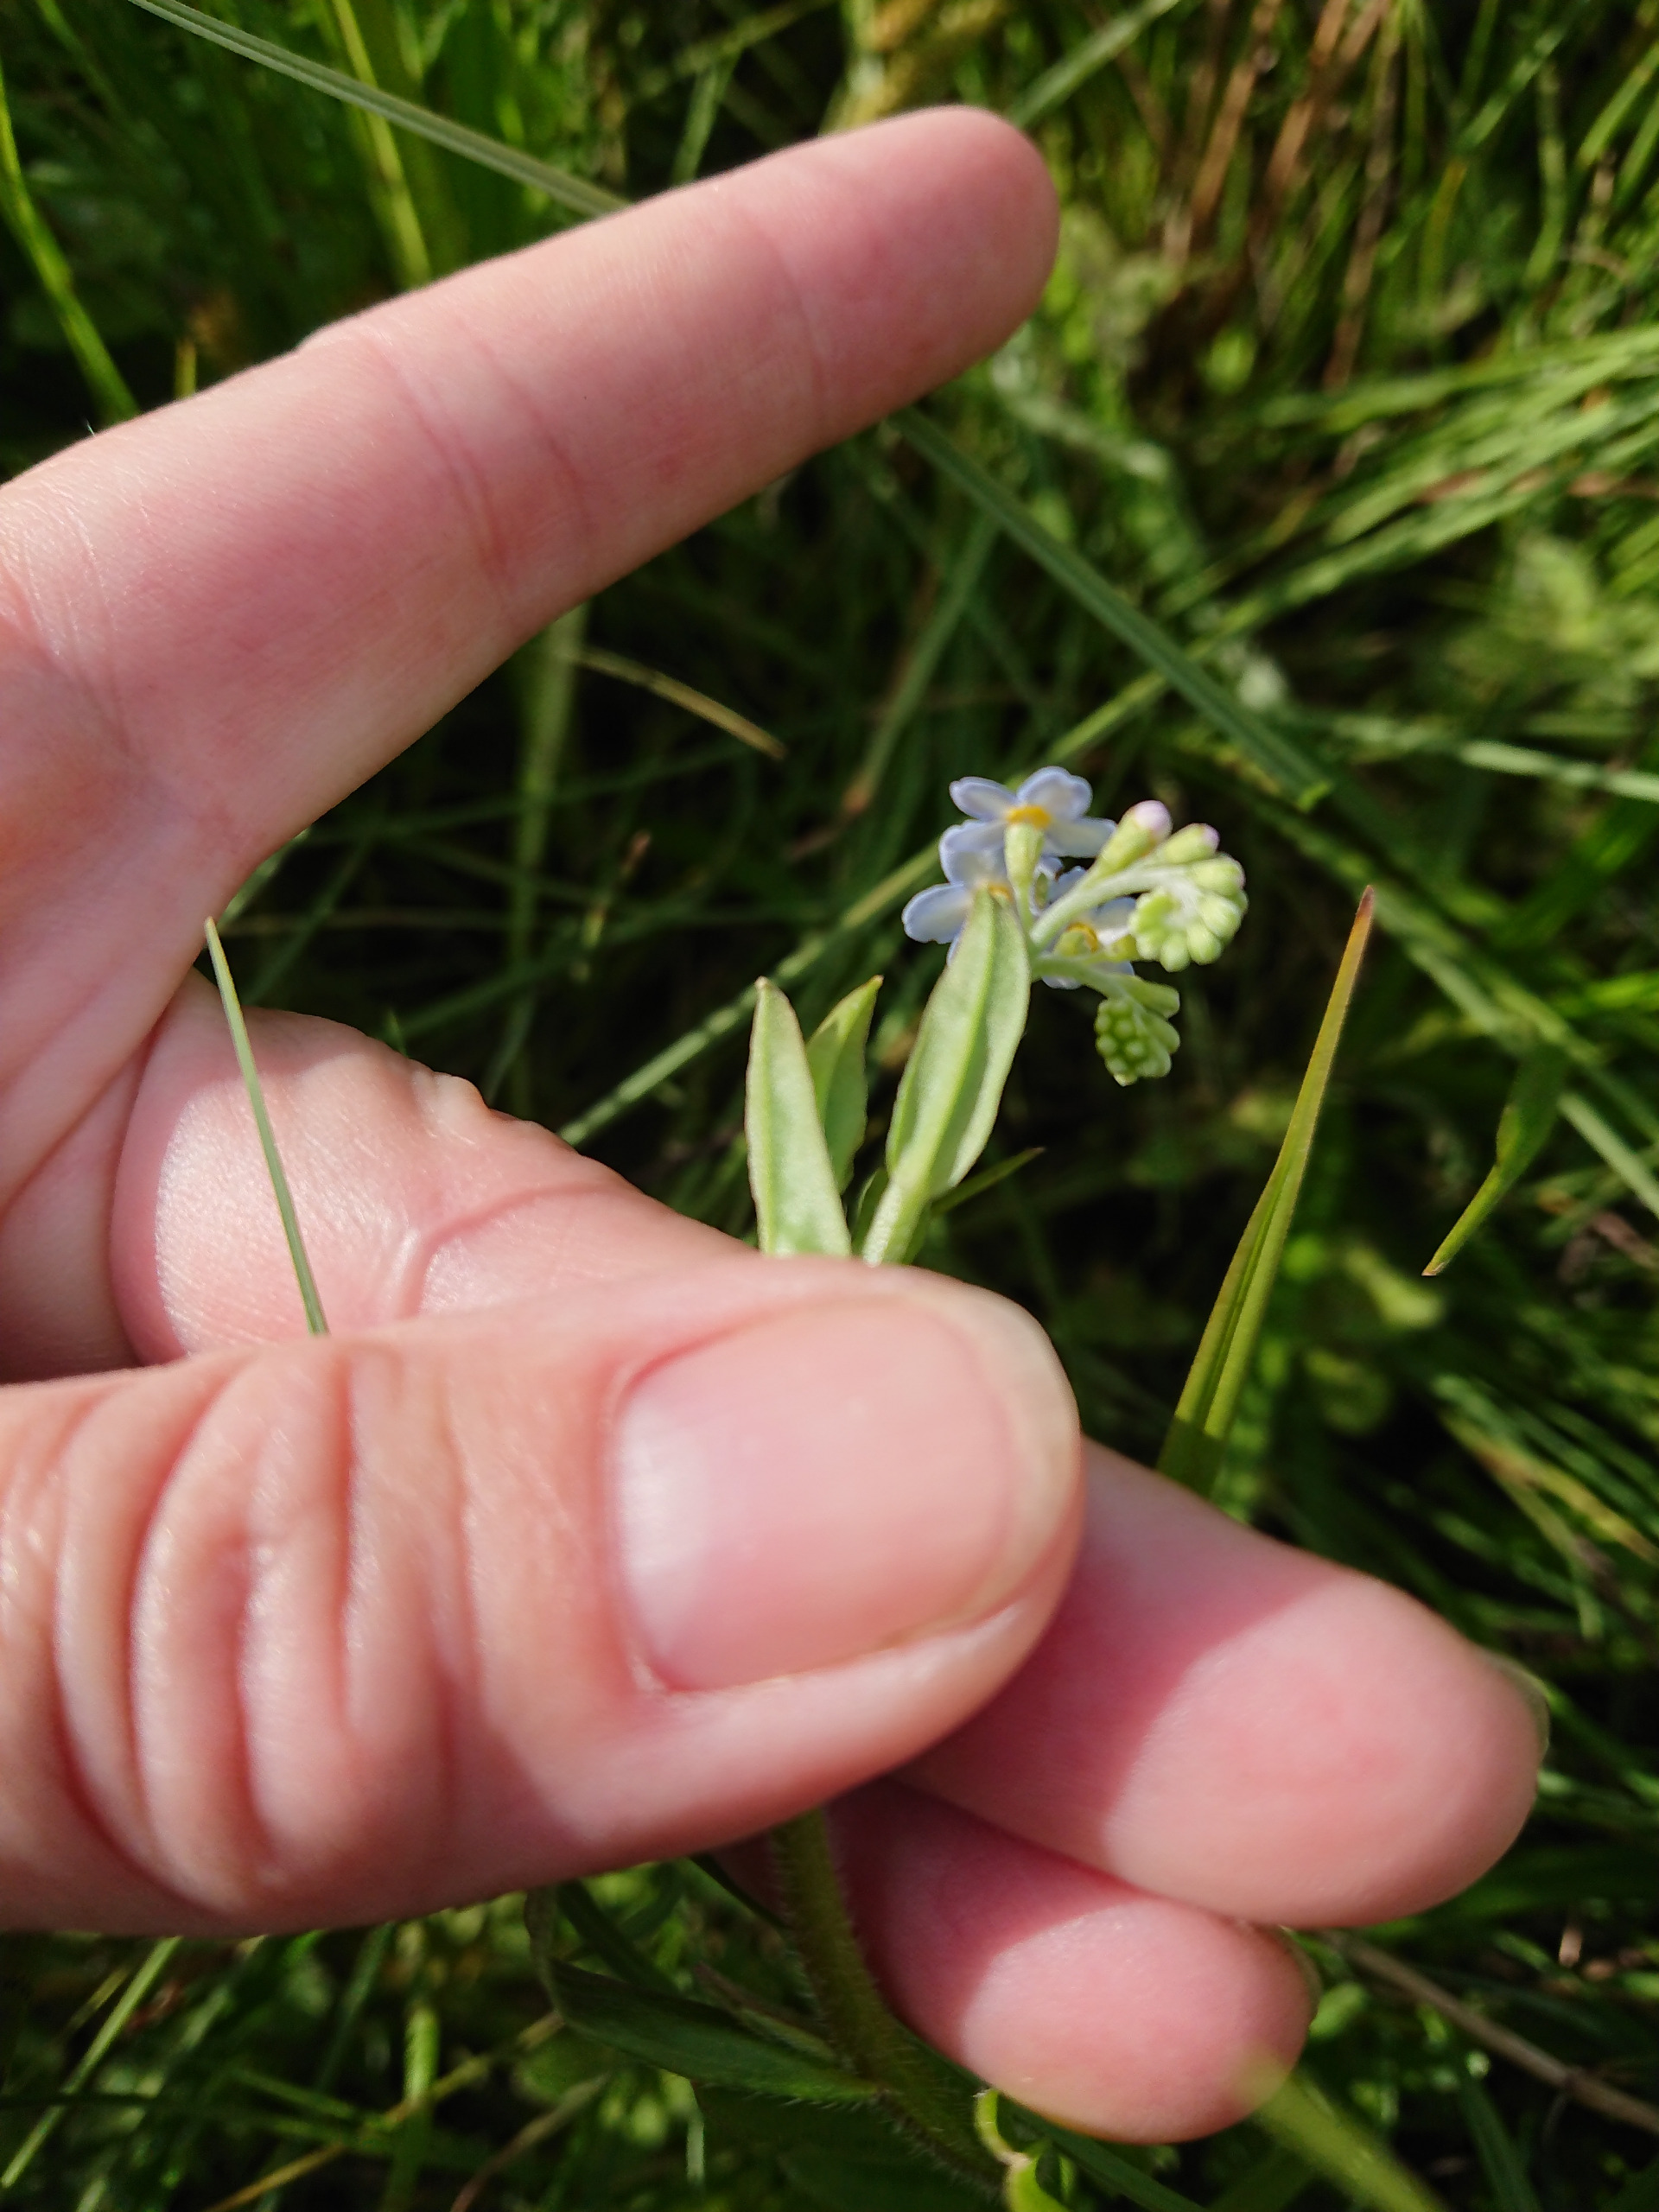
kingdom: Plantae
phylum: Tracheophyta
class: Magnoliopsida
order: Boraginales
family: Boraginaceae
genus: Myosotis
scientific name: Myosotis scorpioides
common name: Eng-forglemmigej
